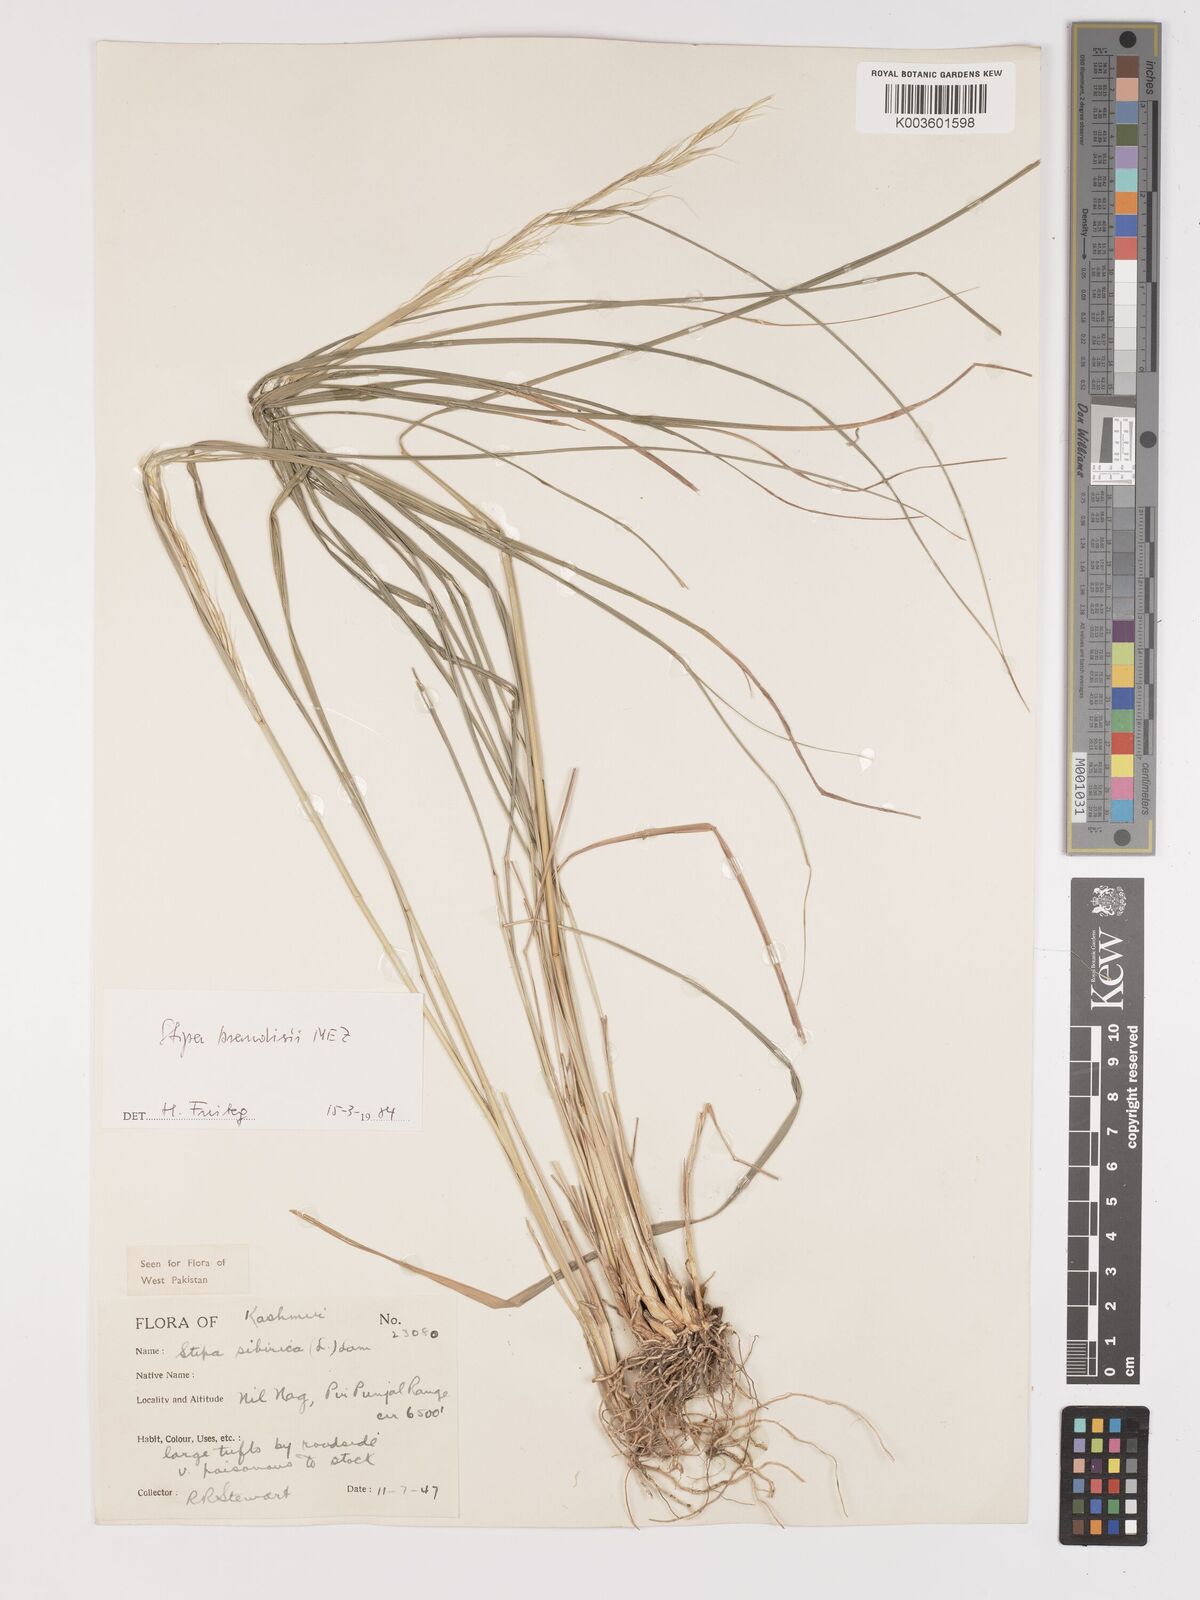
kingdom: Plantae
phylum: Tracheophyta
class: Liliopsida
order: Poales
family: Poaceae
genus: Achnatherum
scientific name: Achnatherum brandisii
